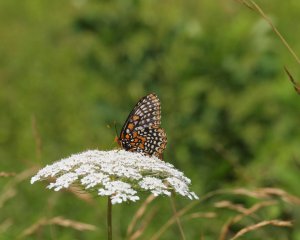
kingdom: Animalia
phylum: Arthropoda
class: Insecta
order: Lepidoptera
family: Nymphalidae
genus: Euphydryas
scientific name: Euphydryas phaeton
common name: Baltimore Checkerspot
